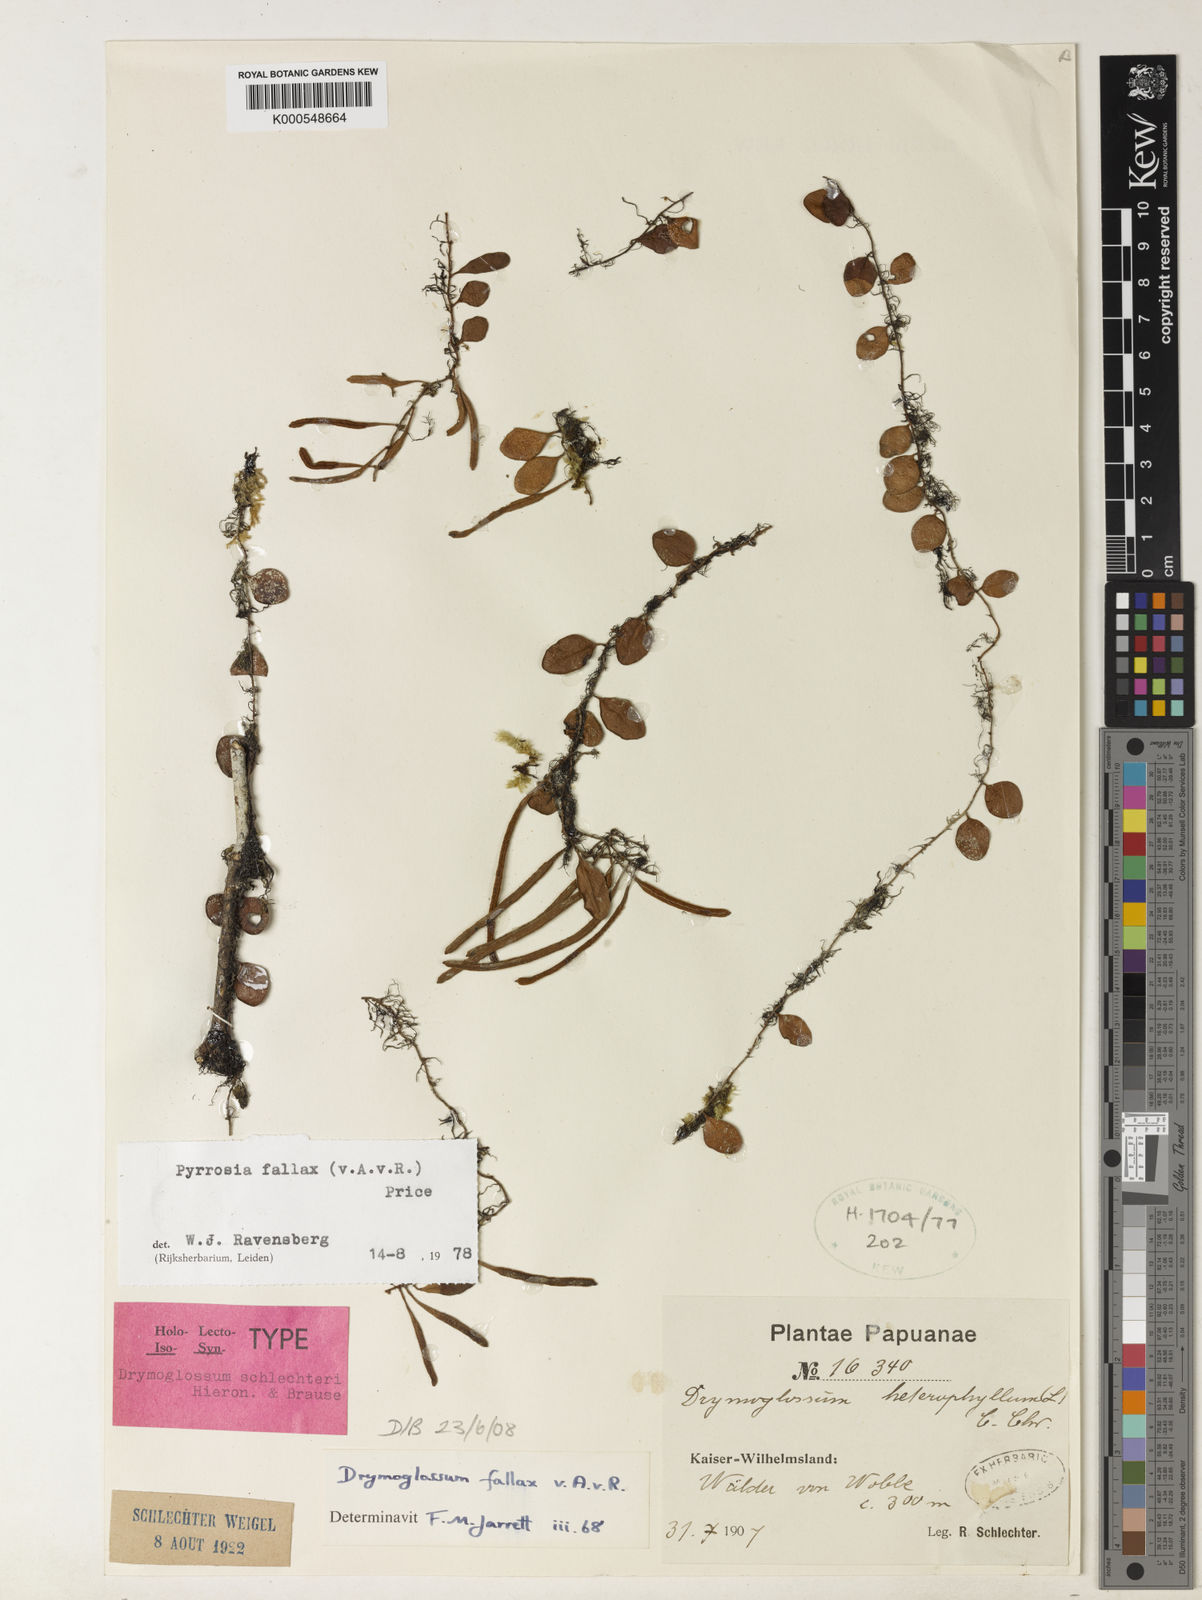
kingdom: Plantae
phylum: Tracheophyta
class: Polypodiopsida
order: Polypodiales
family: Polypodiaceae
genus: Pyrrosia
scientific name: Pyrrosia fallax
